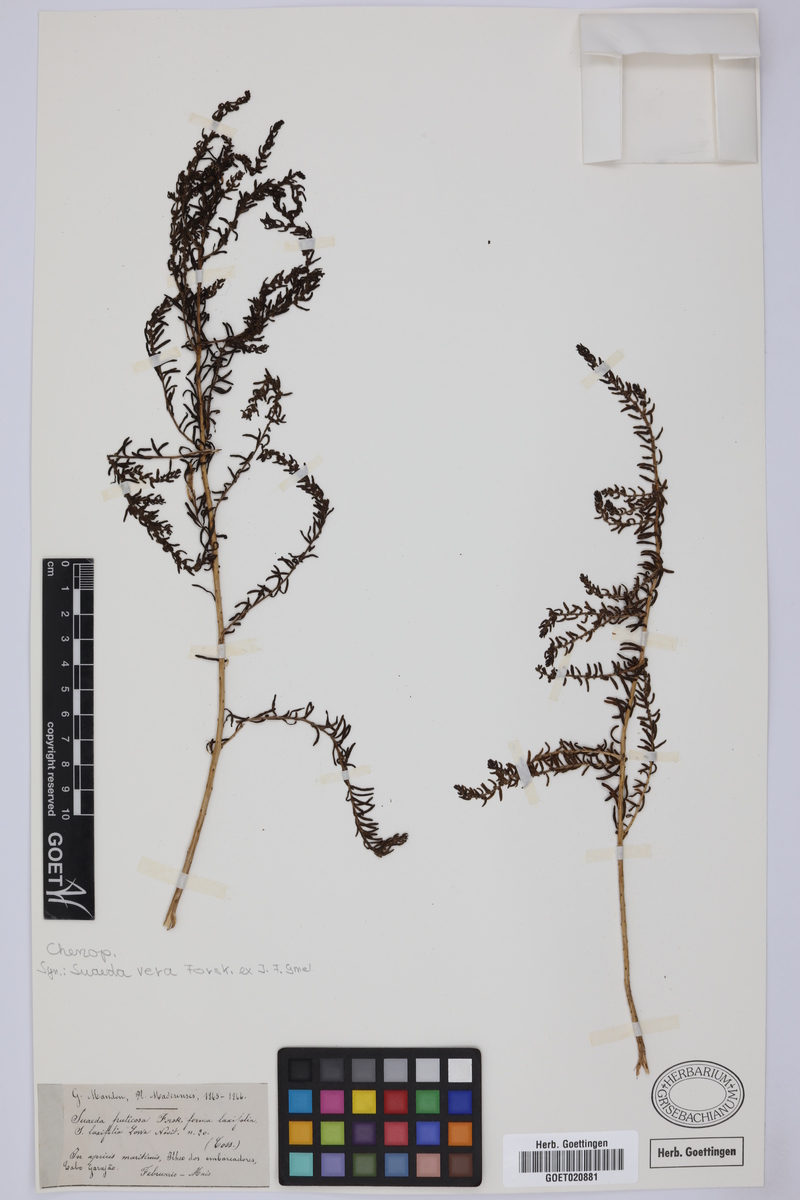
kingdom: Plantae
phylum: Tracheophyta
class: Magnoliopsida
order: Caryophyllales
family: Amaranthaceae
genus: Suaeda
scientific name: Suaeda vera
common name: Shrubby sea-blite
